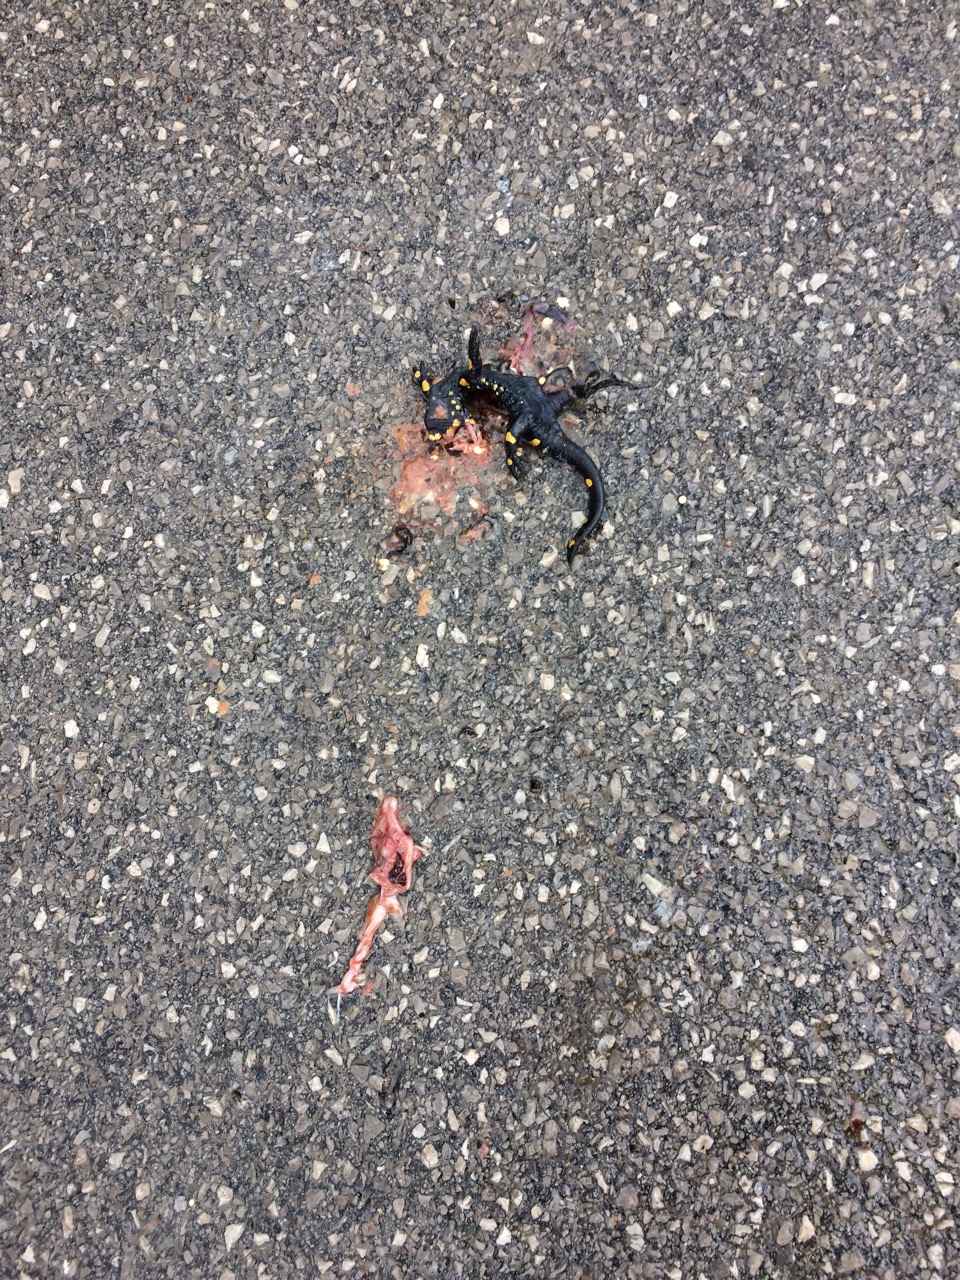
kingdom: Animalia
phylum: Chordata
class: Amphibia
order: Caudata
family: Salamandridae
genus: Salamandra
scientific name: Salamandra salamandra
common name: Fire salamander
